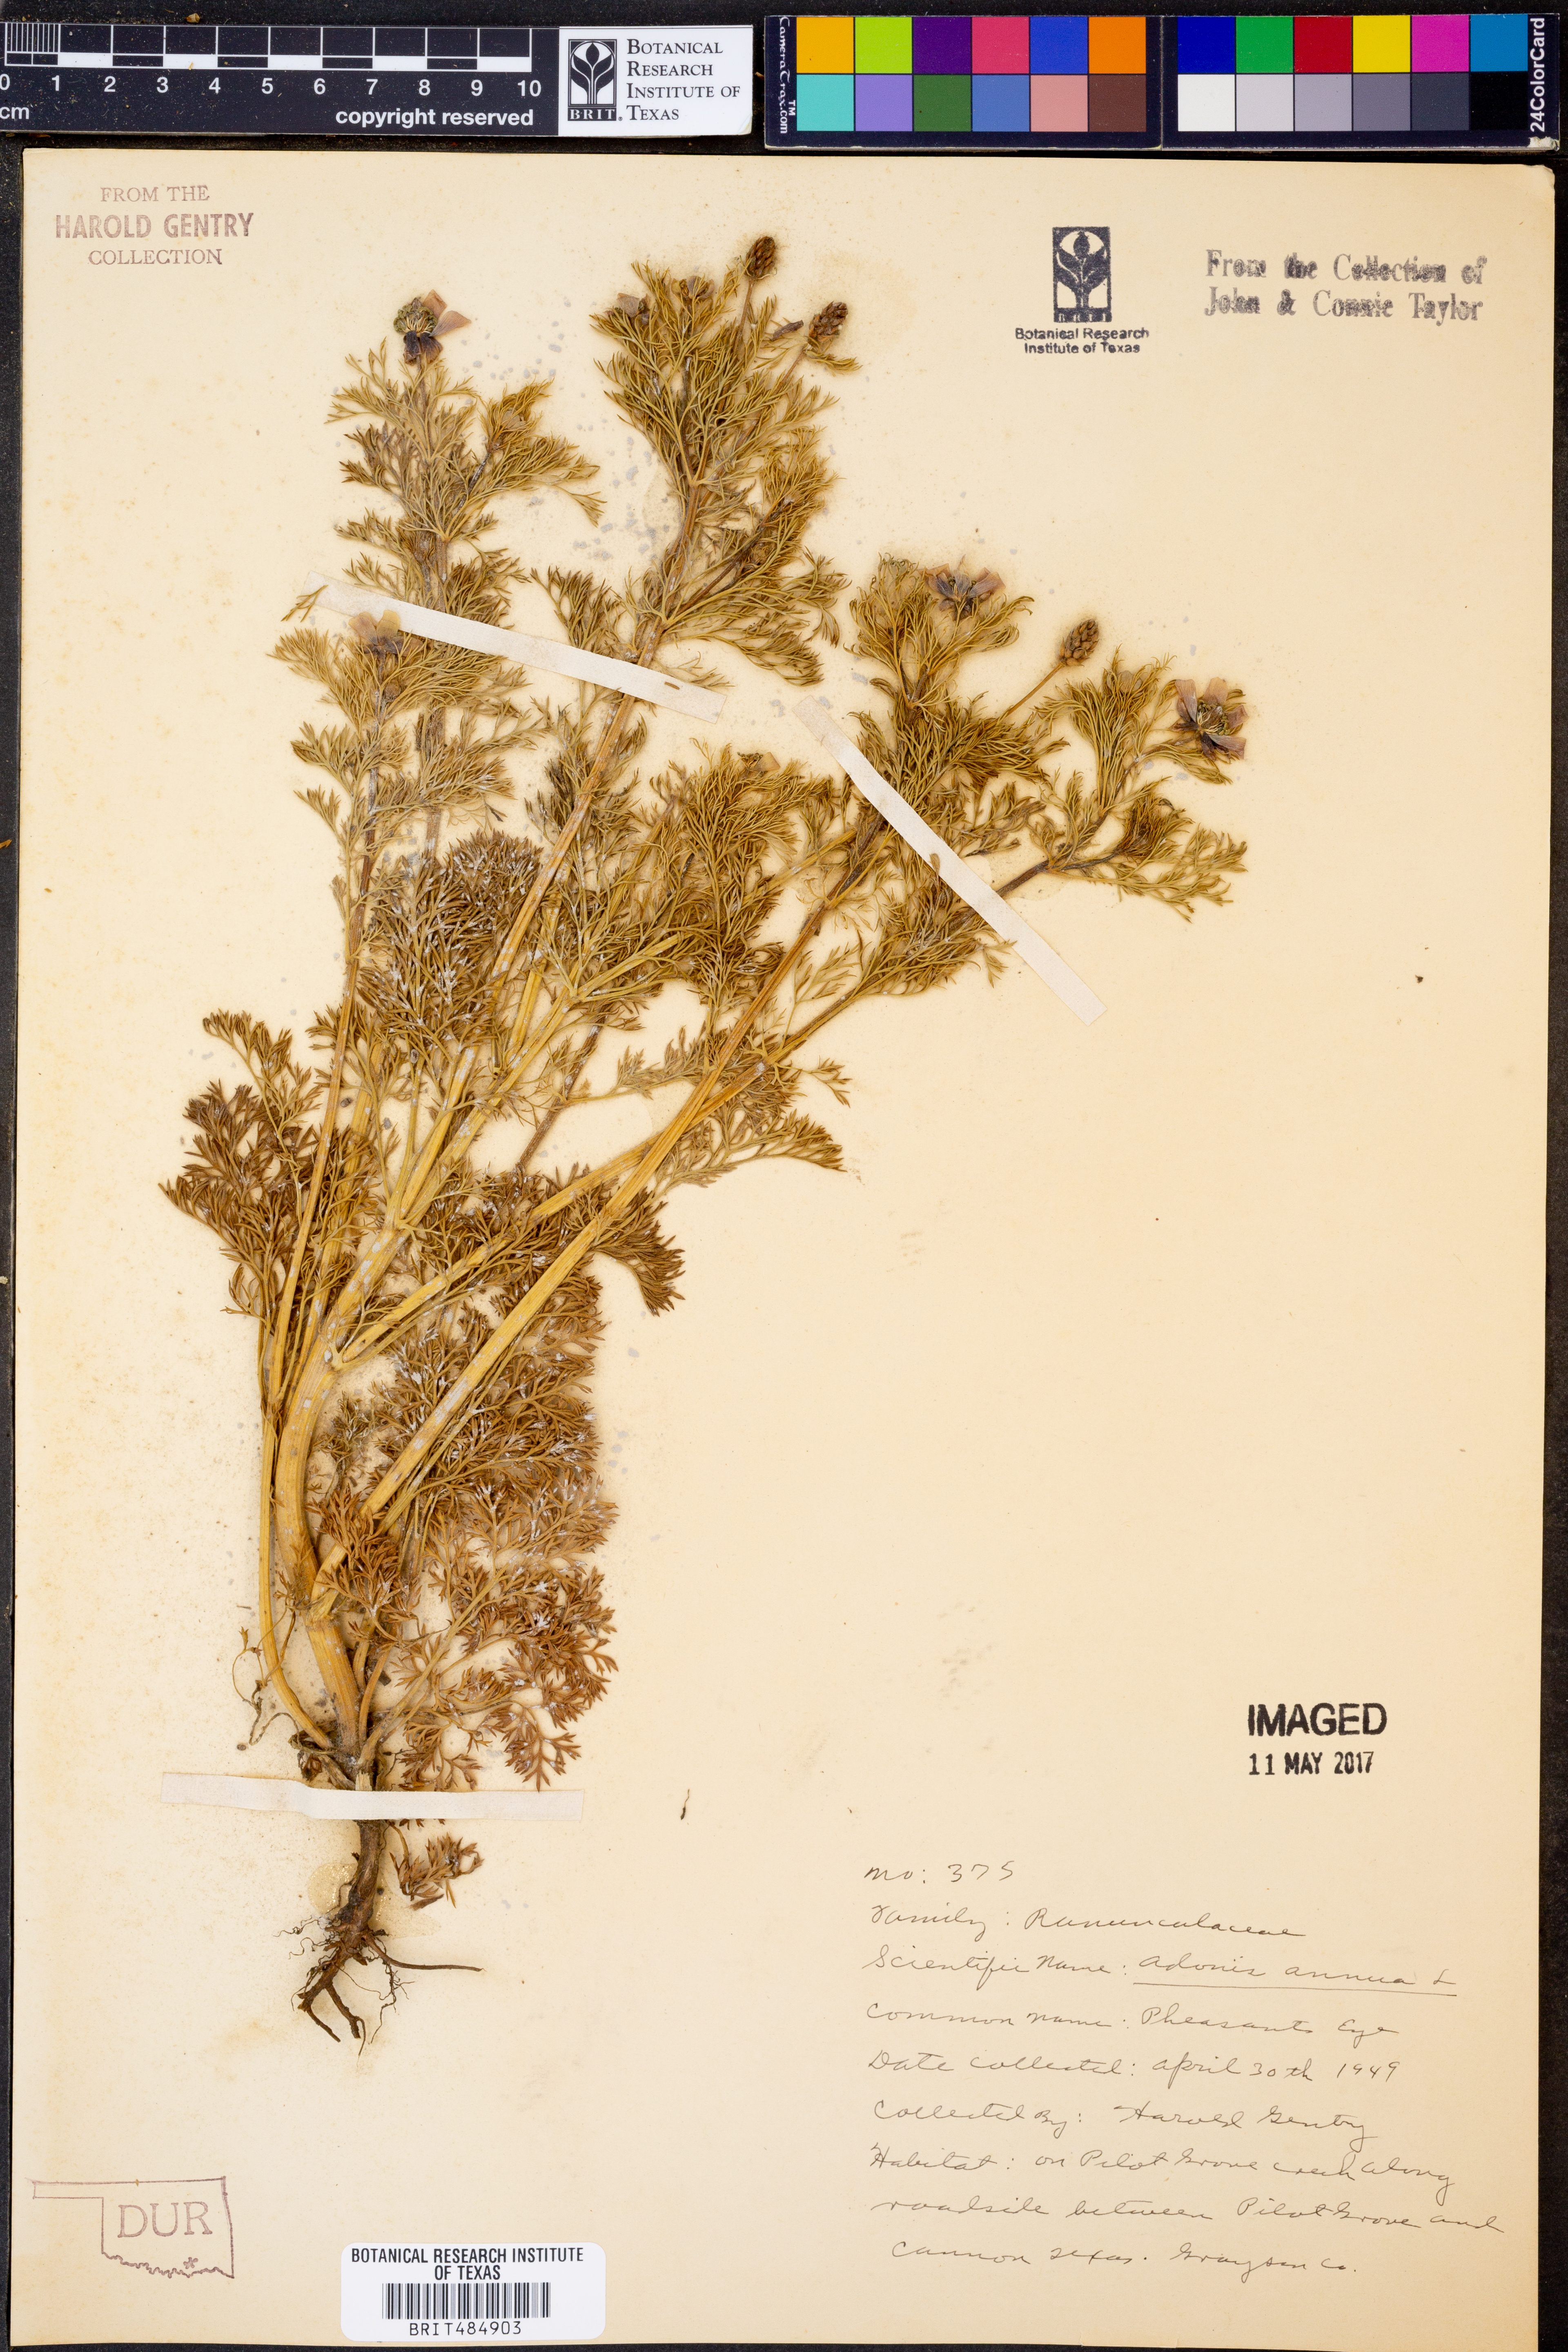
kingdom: Plantae
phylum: Tracheophyta
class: Magnoliopsida
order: Ranunculales
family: Ranunculaceae
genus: Adonis
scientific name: Adonis annua
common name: Pheasant's-eye
